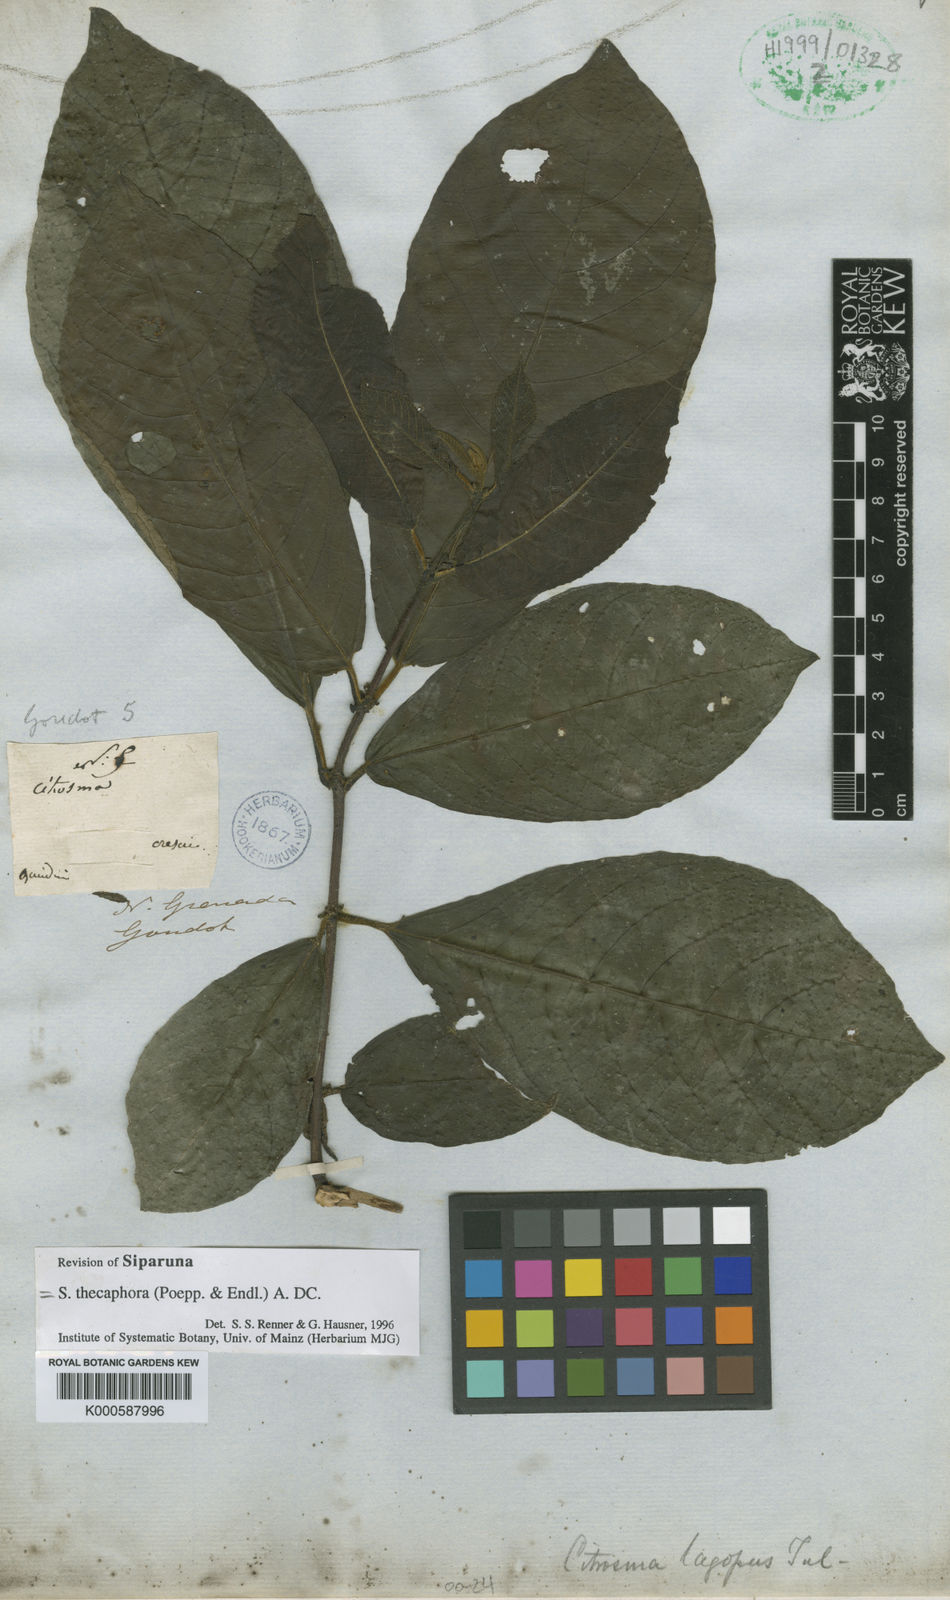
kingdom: Plantae
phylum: Tracheophyta
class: Magnoliopsida
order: Laurales
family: Siparunaceae
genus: Siparuna
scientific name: Siparuna thecaphora
